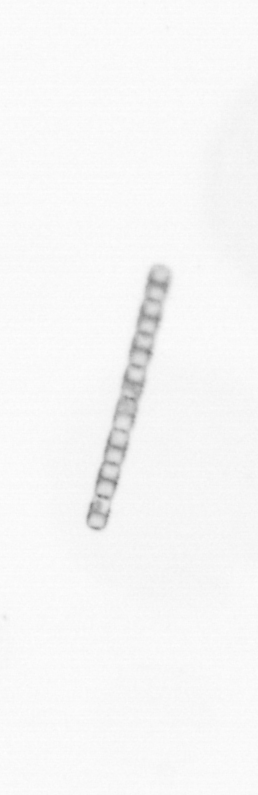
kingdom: Chromista
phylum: Ochrophyta
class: Bacillariophyceae
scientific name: Bacillariophyceae
